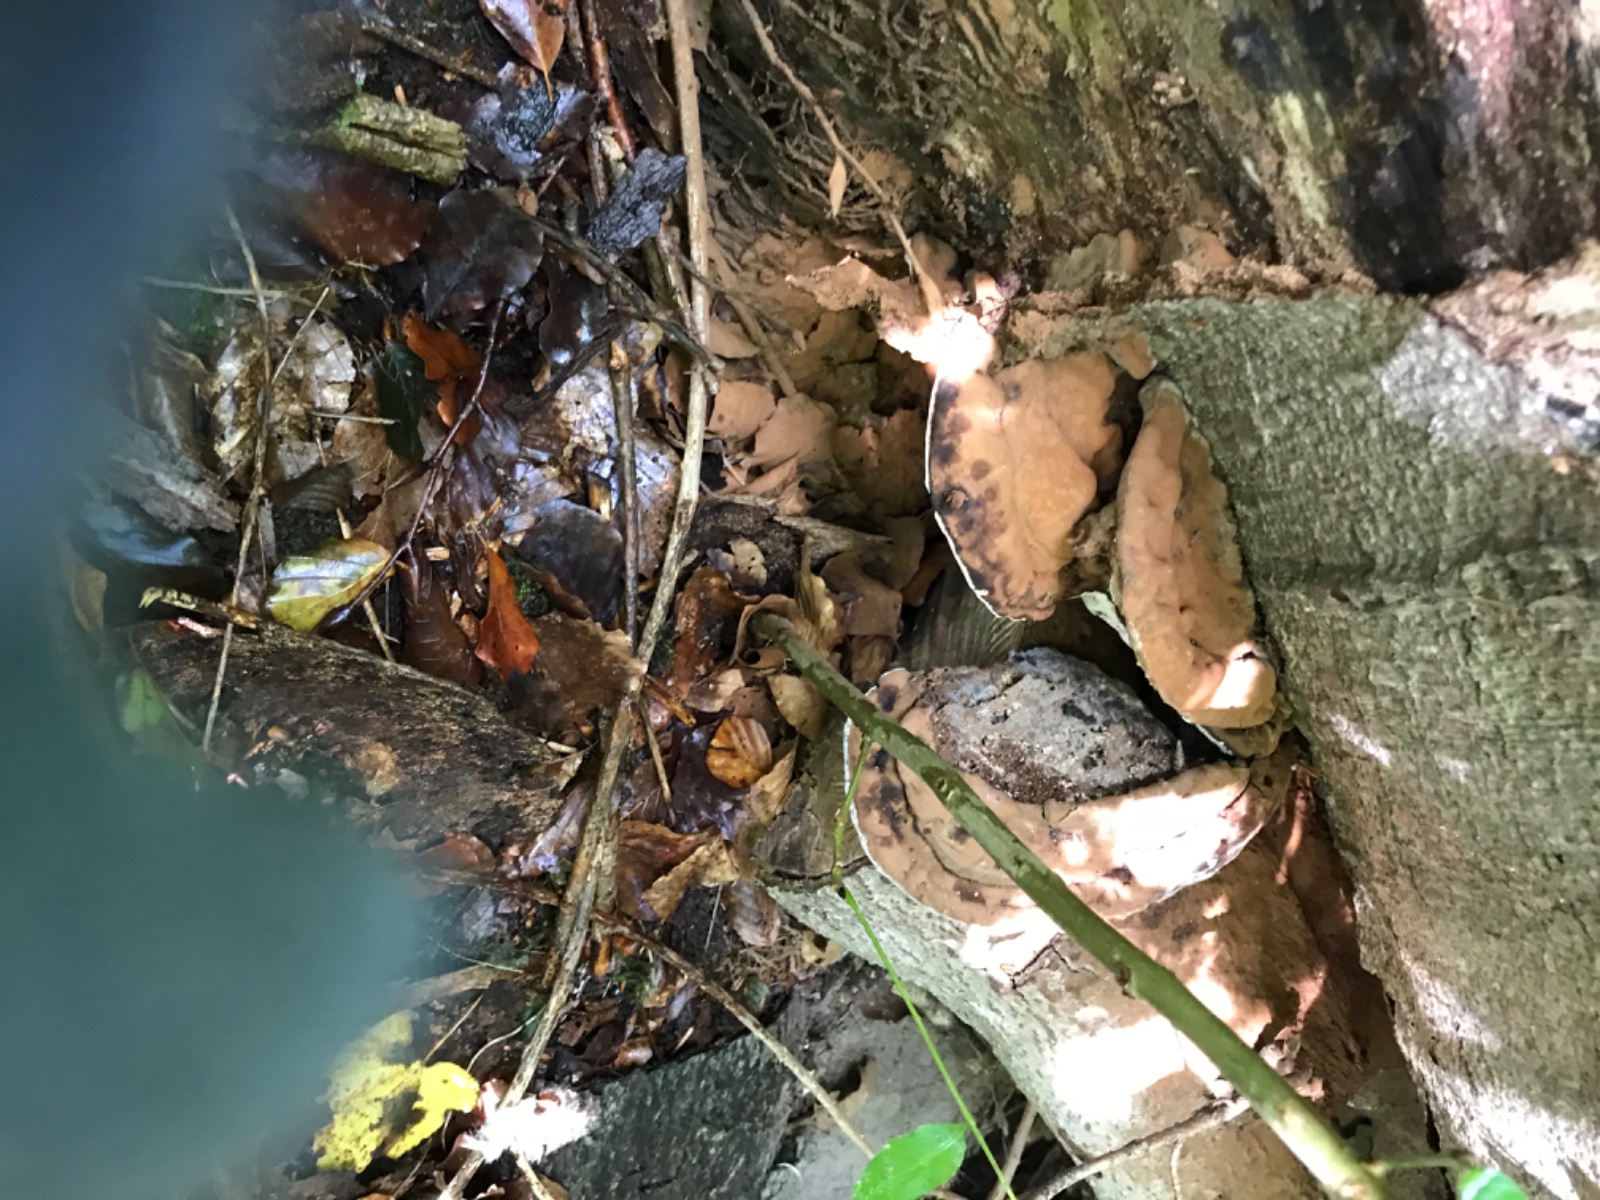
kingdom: Fungi
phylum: Basidiomycota
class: Agaricomycetes
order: Polyporales
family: Polyporaceae
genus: Ganoderma
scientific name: Ganoderma applanatum
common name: flad lakporesvamp
